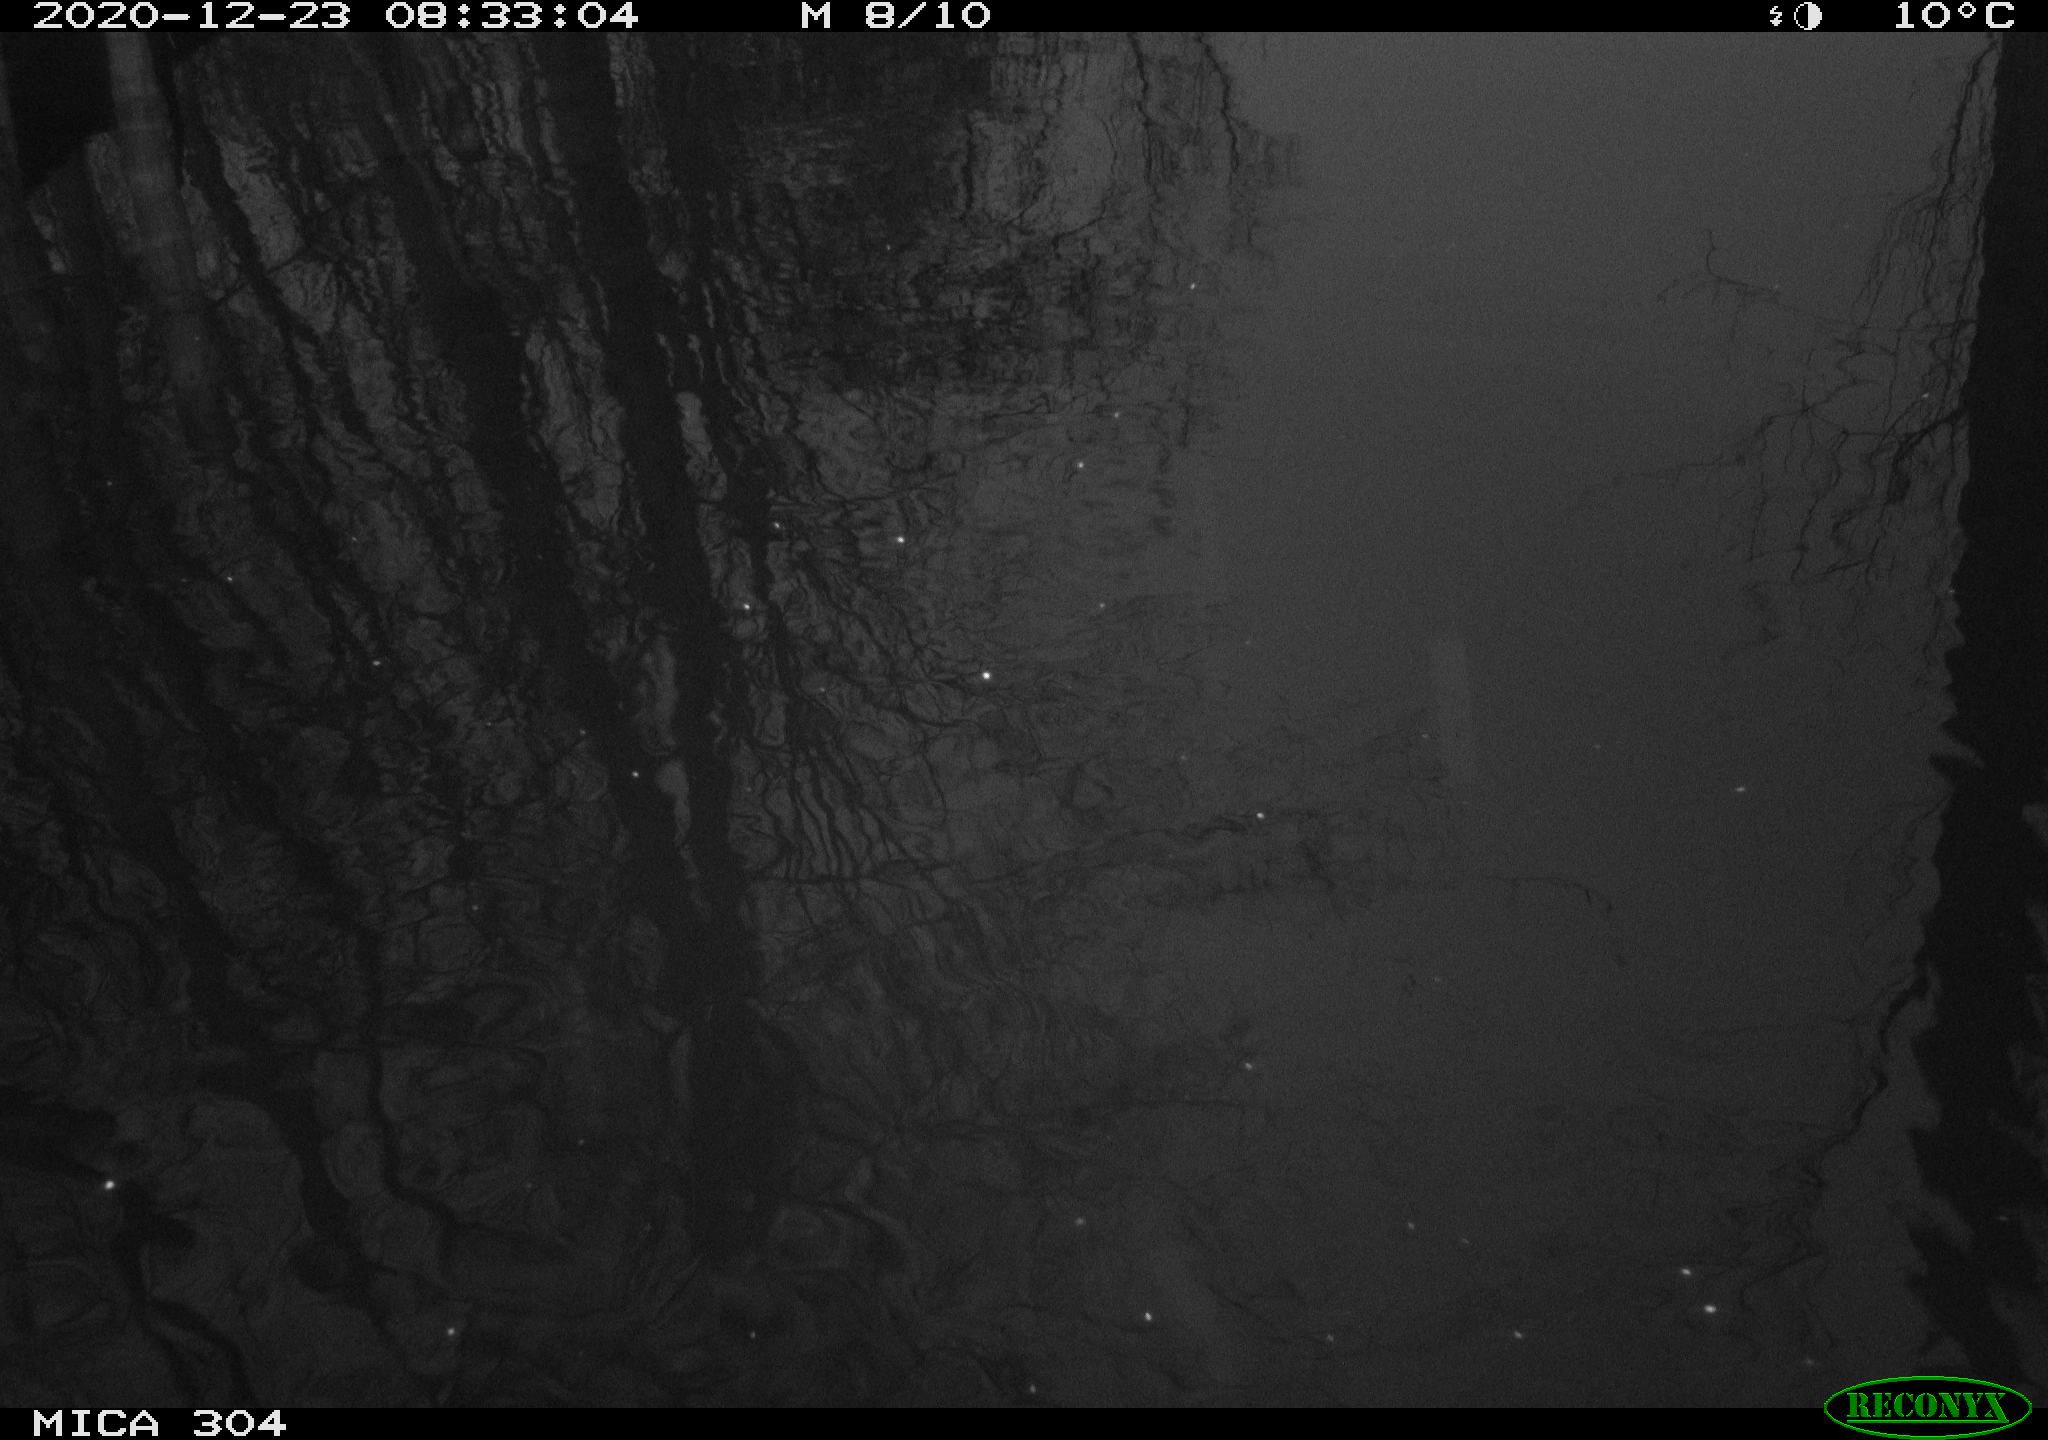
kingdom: Animalia
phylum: Chordata
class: Aves
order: Gruiformes
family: Rallidae
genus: Gallinula
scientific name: Gallinula chloropus
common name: Common moorhen
